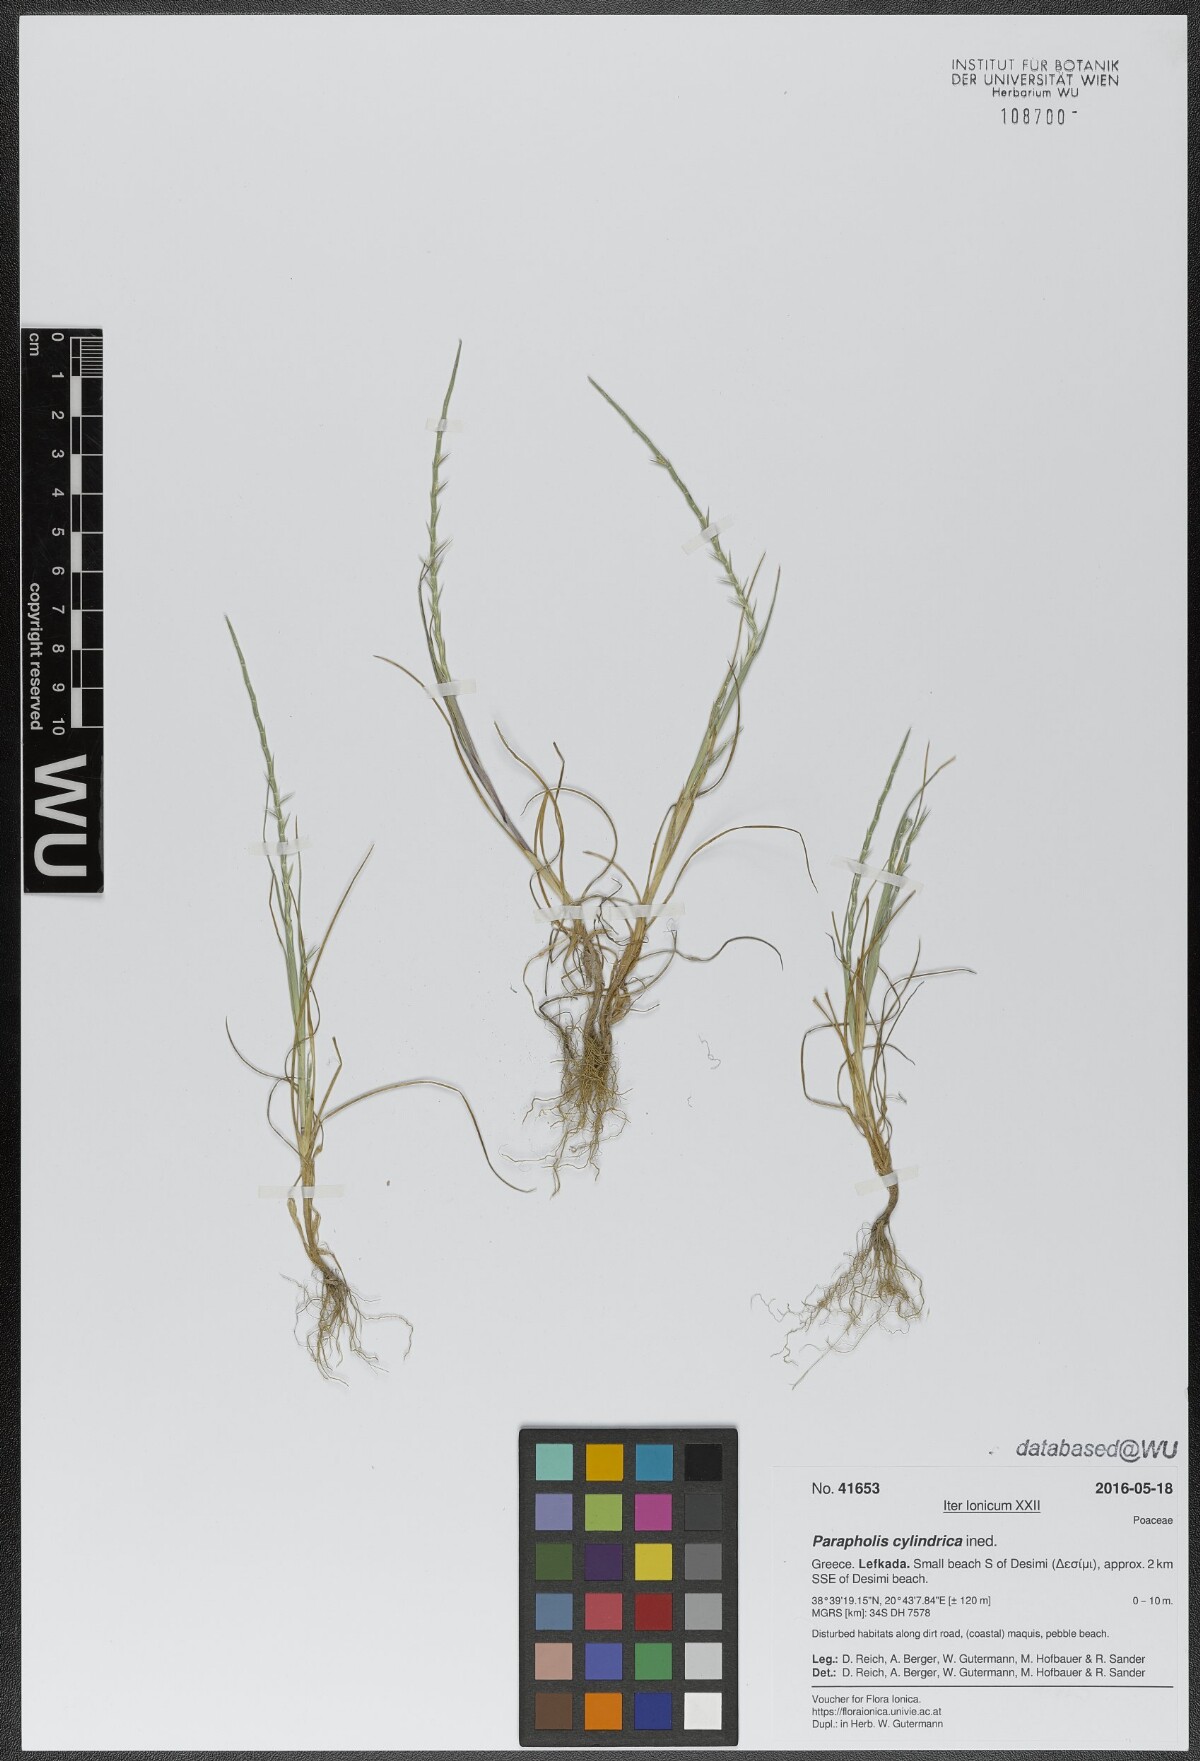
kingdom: Plantae
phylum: Tracheophyta
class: Liliopsida
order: Poales
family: Poaceae
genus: Parapholis
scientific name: Parapholis cylindrica
